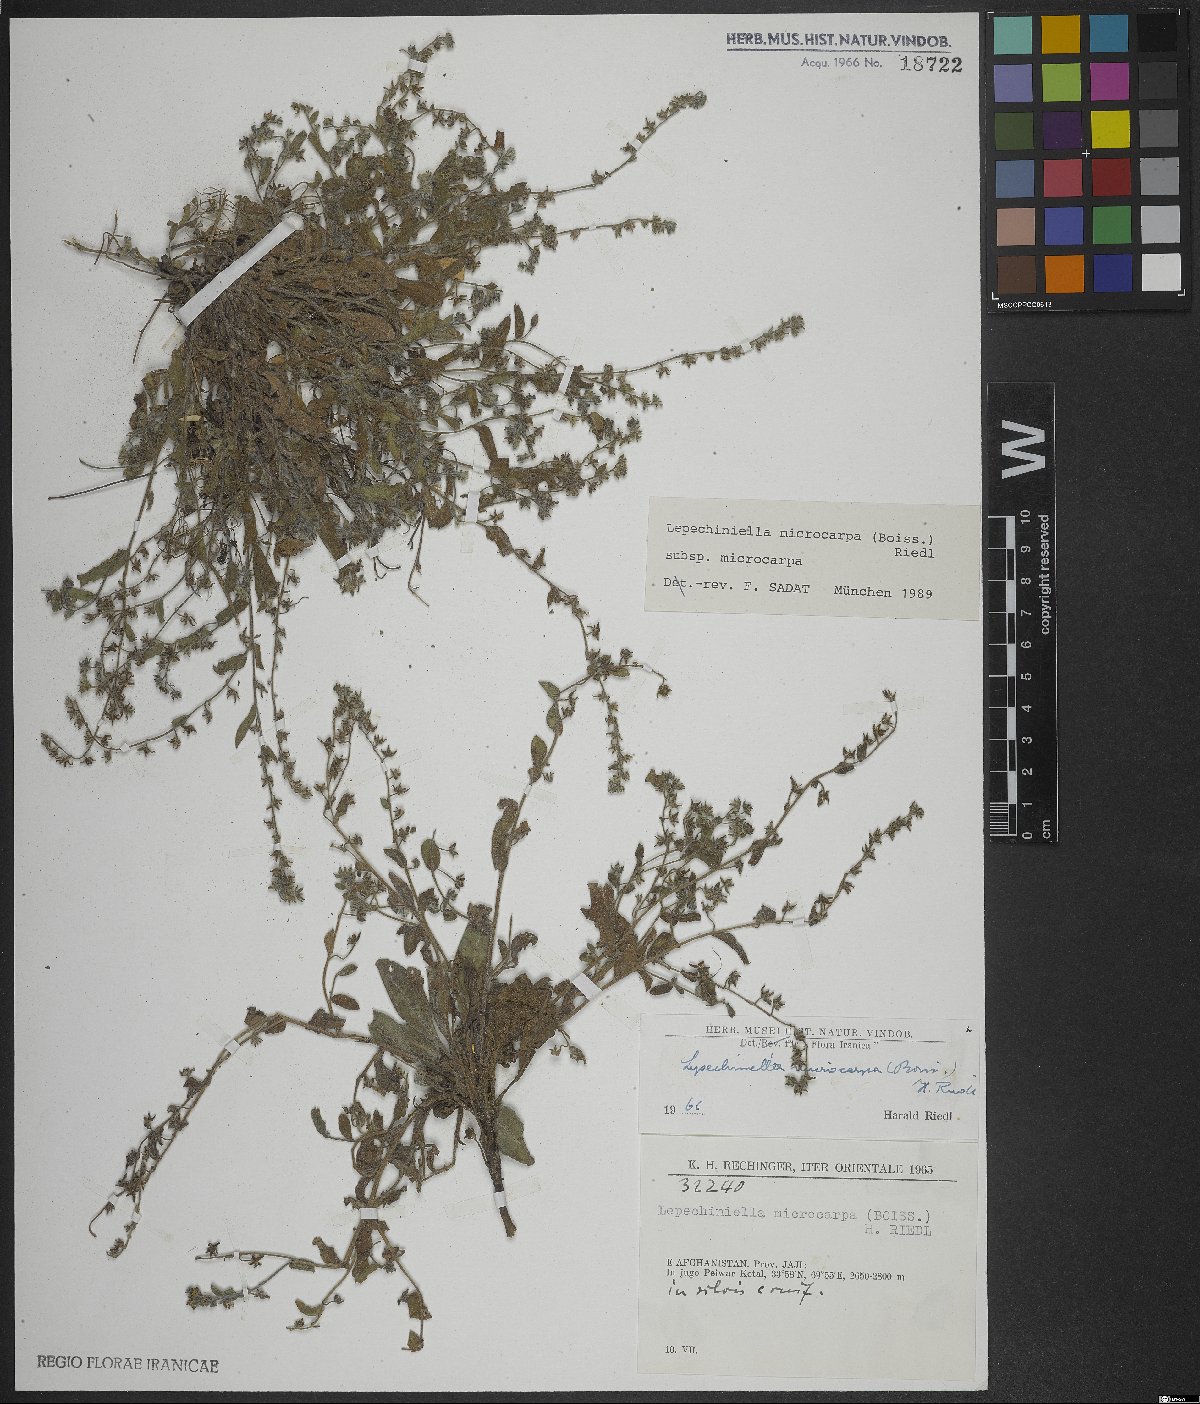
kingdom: Plantae
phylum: Tracheophyta
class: Magnoliopsida
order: Boraginales
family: Boraginaceae
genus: Lepechiniella
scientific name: Lepechiniella microcarpa
